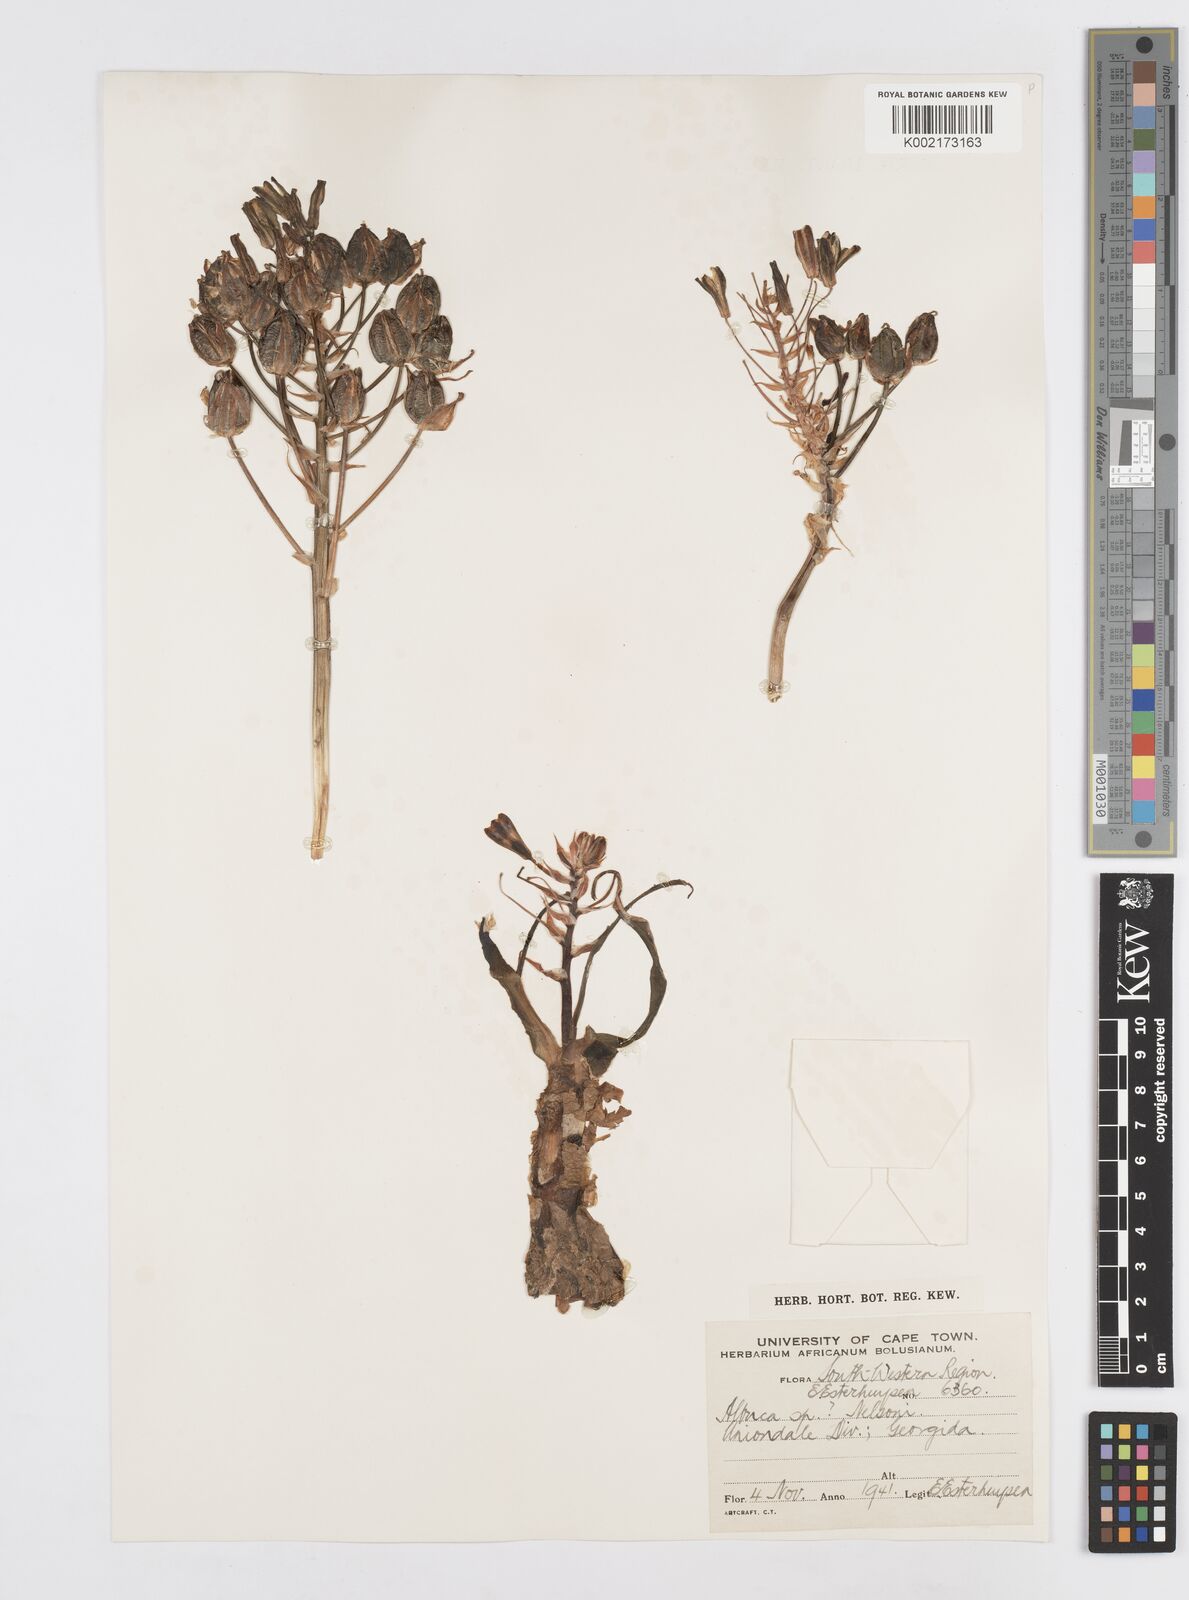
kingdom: Plantae
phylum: Tracheophyta
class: Liliopsida
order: Asparagales
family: Asparagaceae
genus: Albuca
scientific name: Albuca
